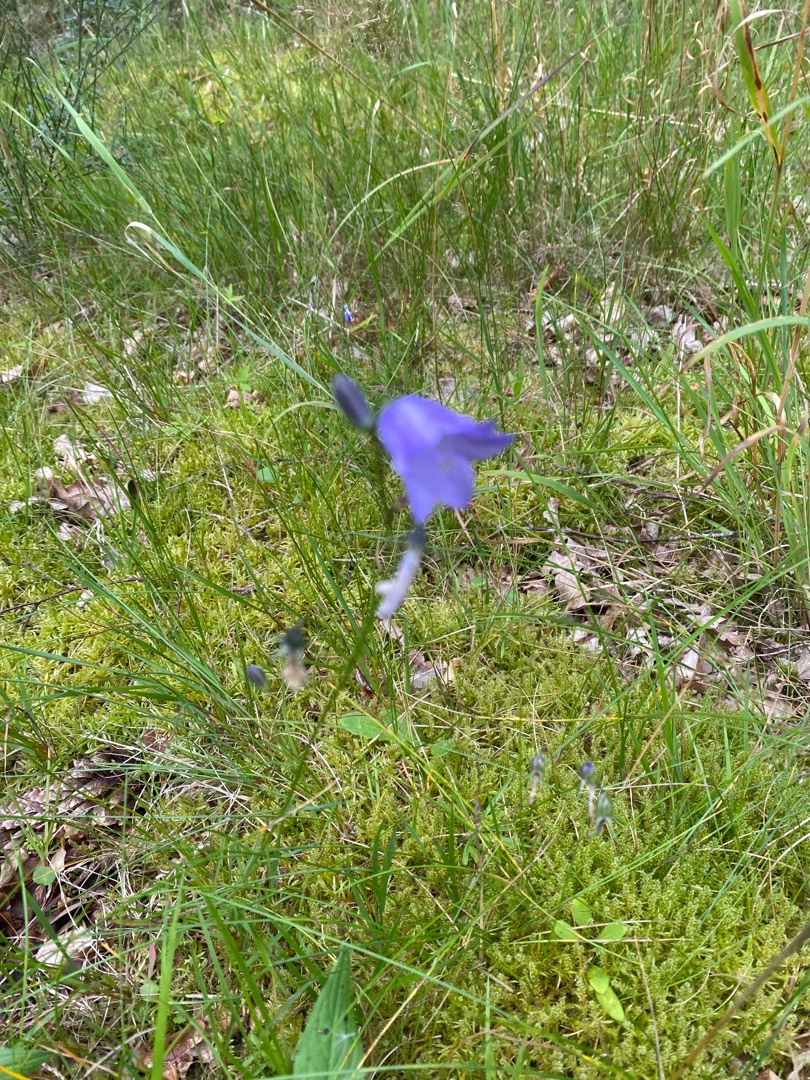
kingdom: Plantae
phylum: Tracheophyta
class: Magnoliopsida
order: Asterales
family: Campanulaceae
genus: Campanula
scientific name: Campanula rotundifolia
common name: Liden klokke
